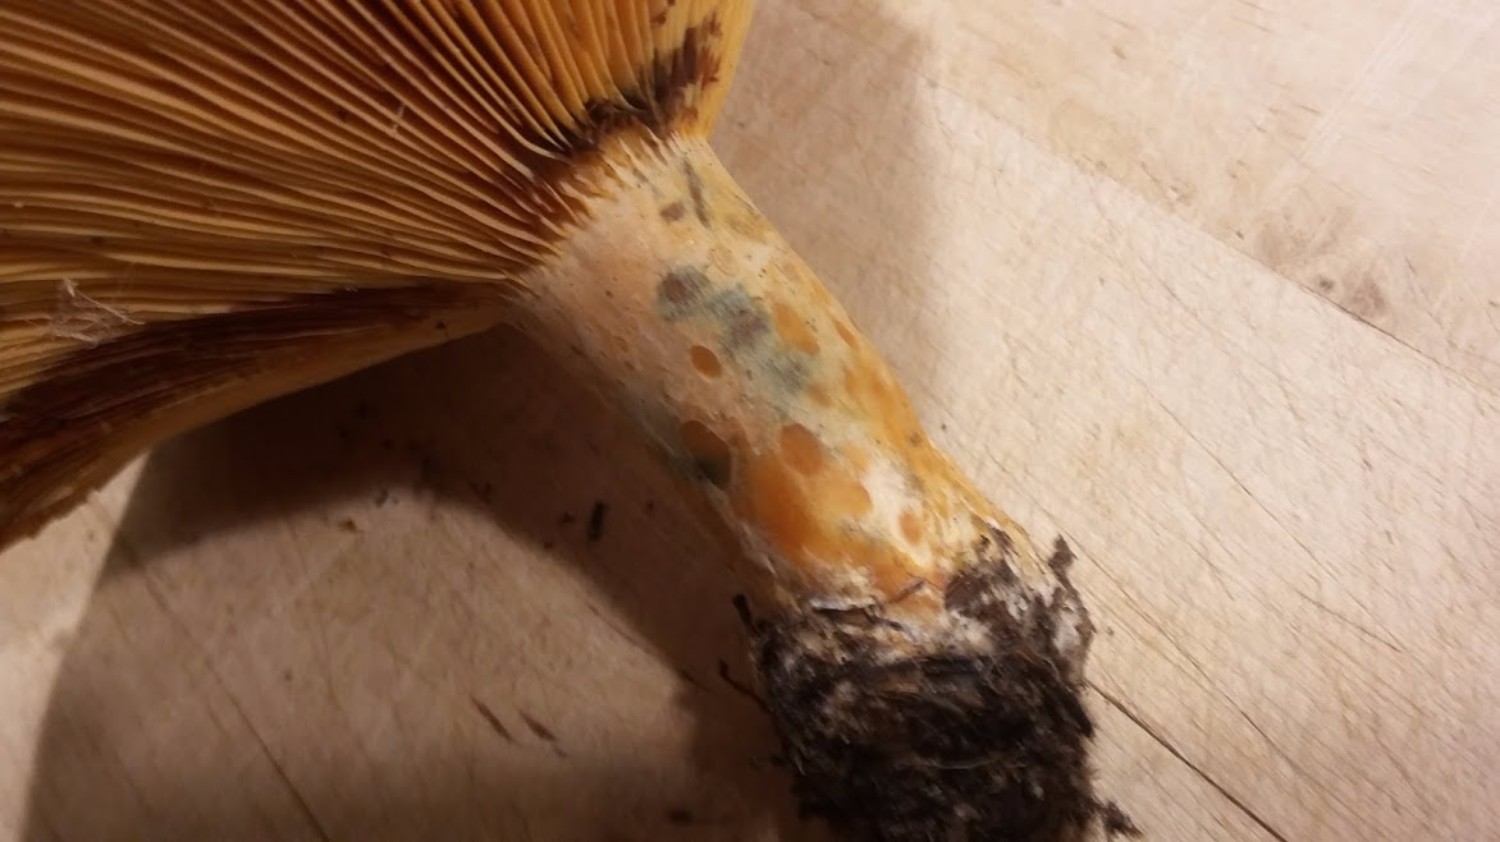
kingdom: Fungi
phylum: Basidiomycota
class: Agaricomycetes
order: Russulales
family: Russulaceae
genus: Lactarius
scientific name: Lactarius deliciosus
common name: velsmagende mælkehat
